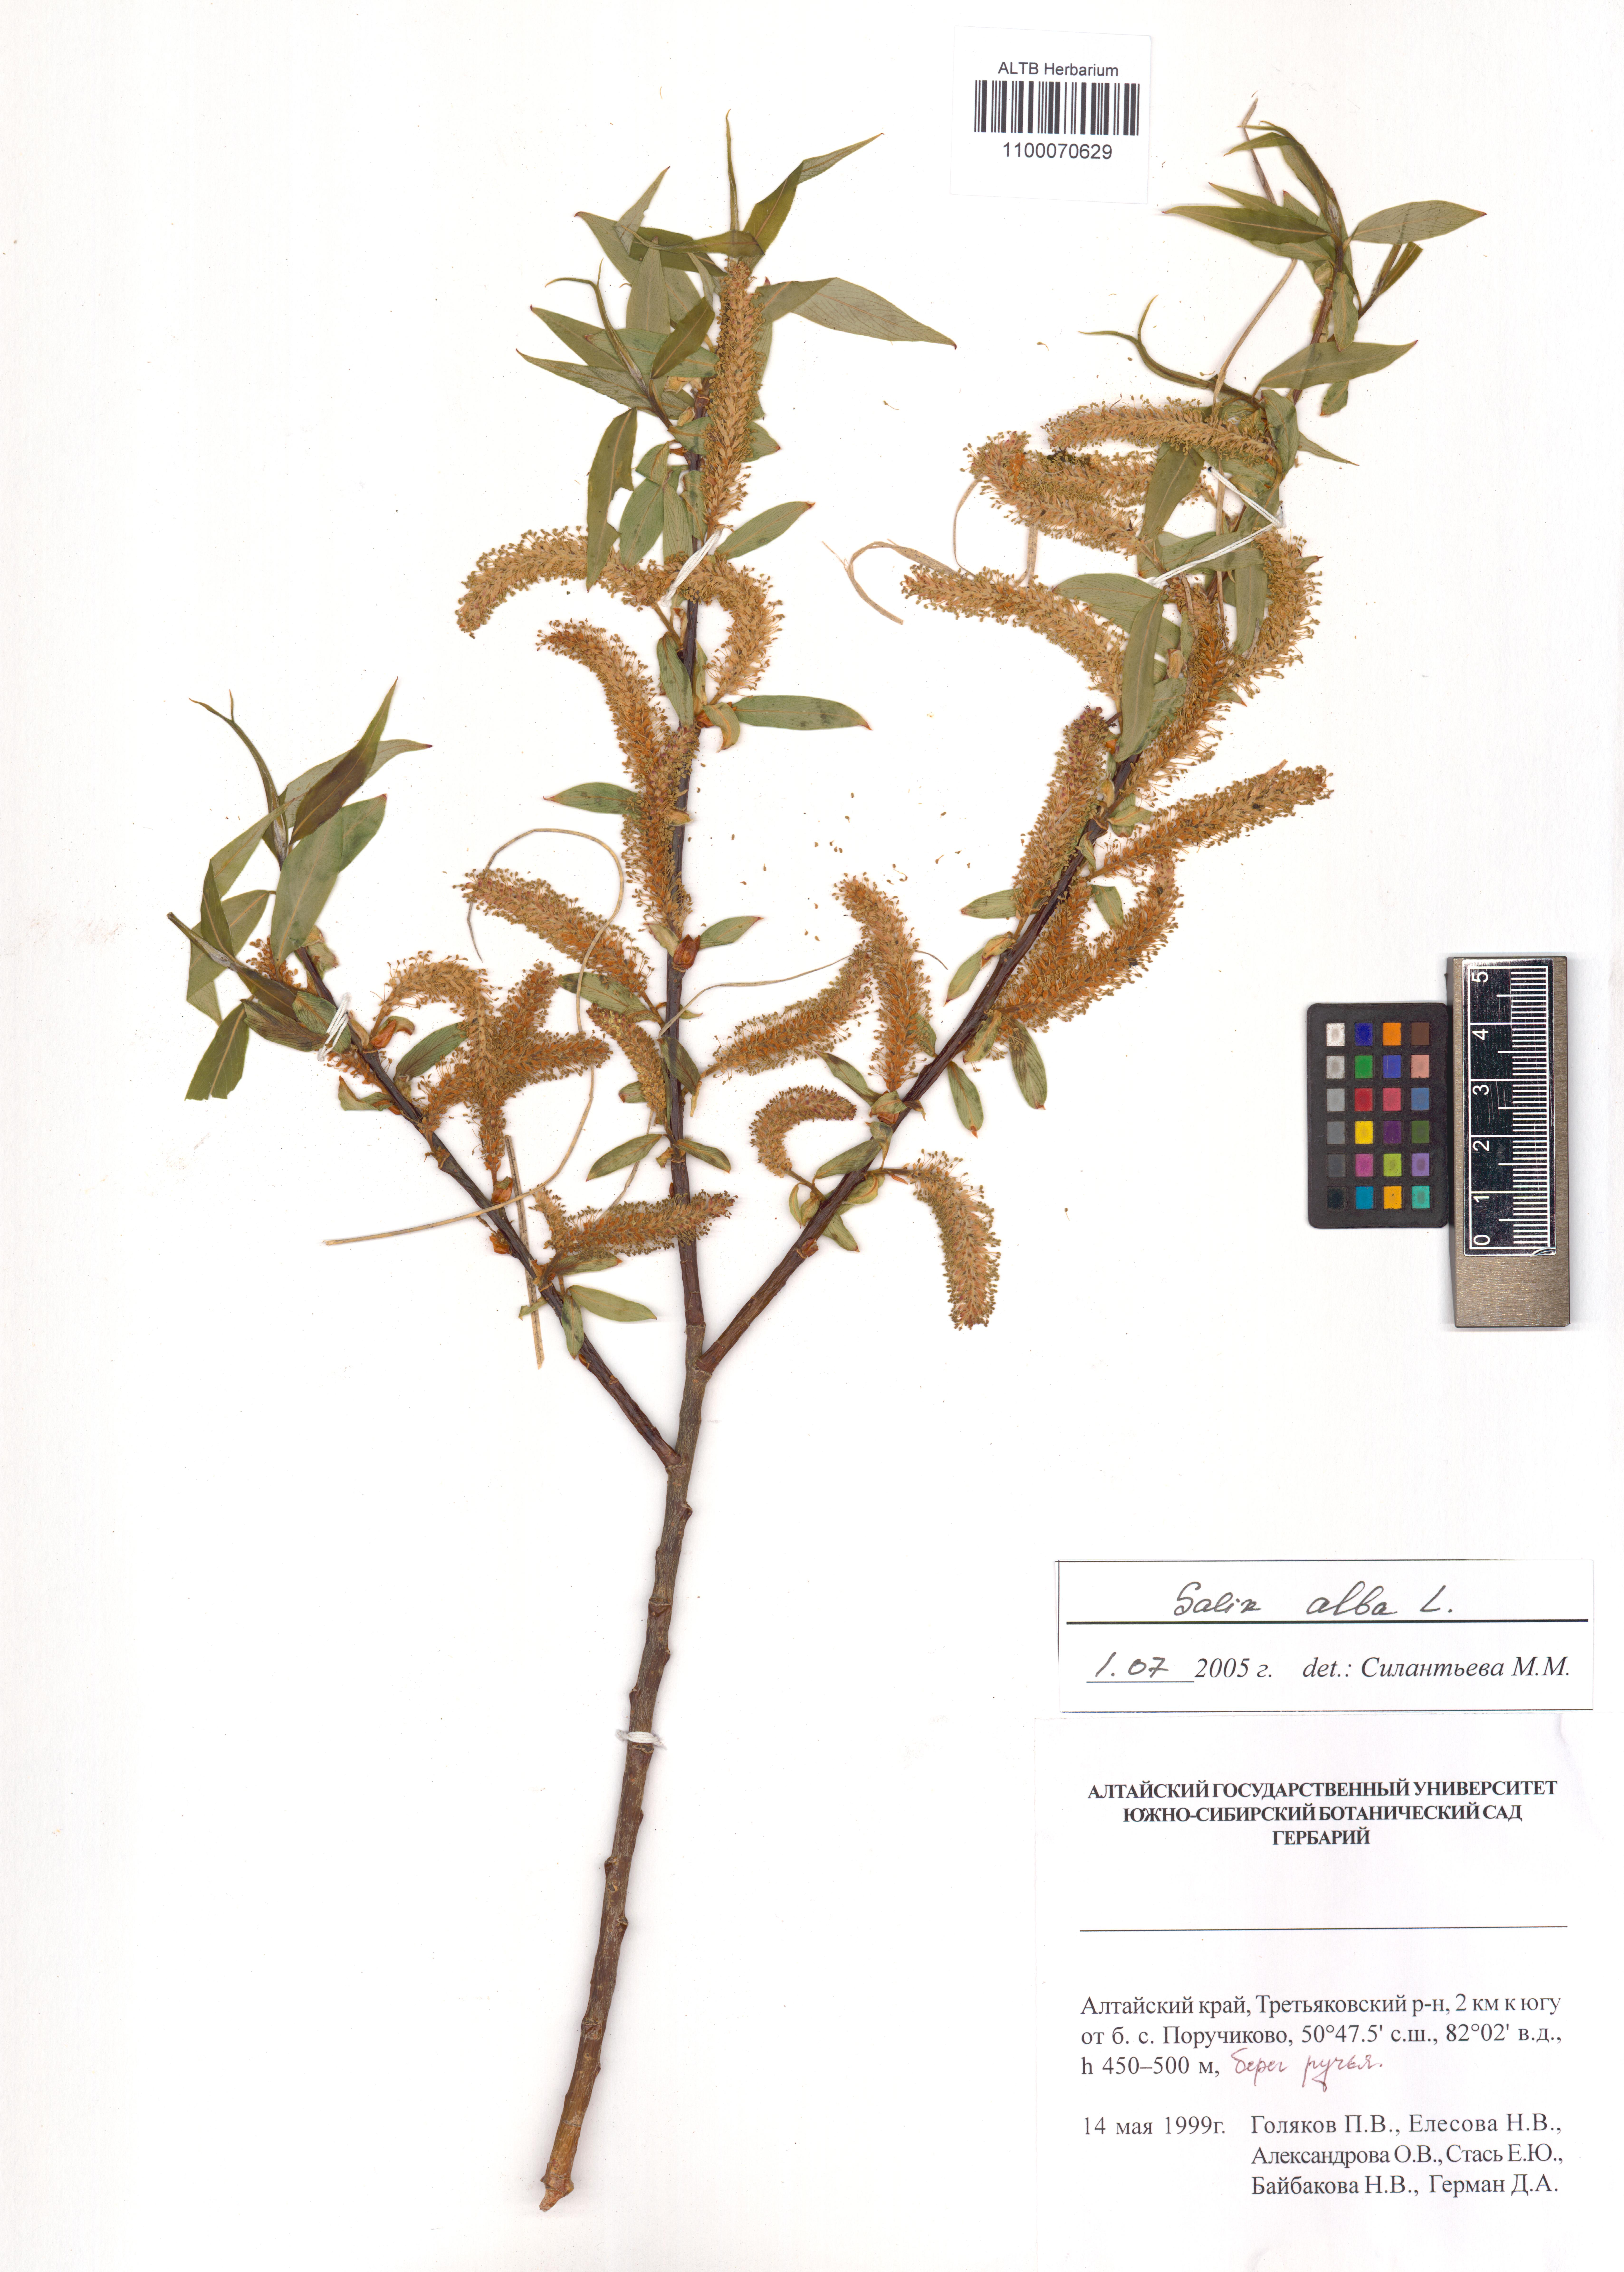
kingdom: Plantae
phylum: Tracheophyta
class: Magnoliopsida
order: Malpighiales
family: Salicaceae
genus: Salix
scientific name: Salix alba
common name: White willow
